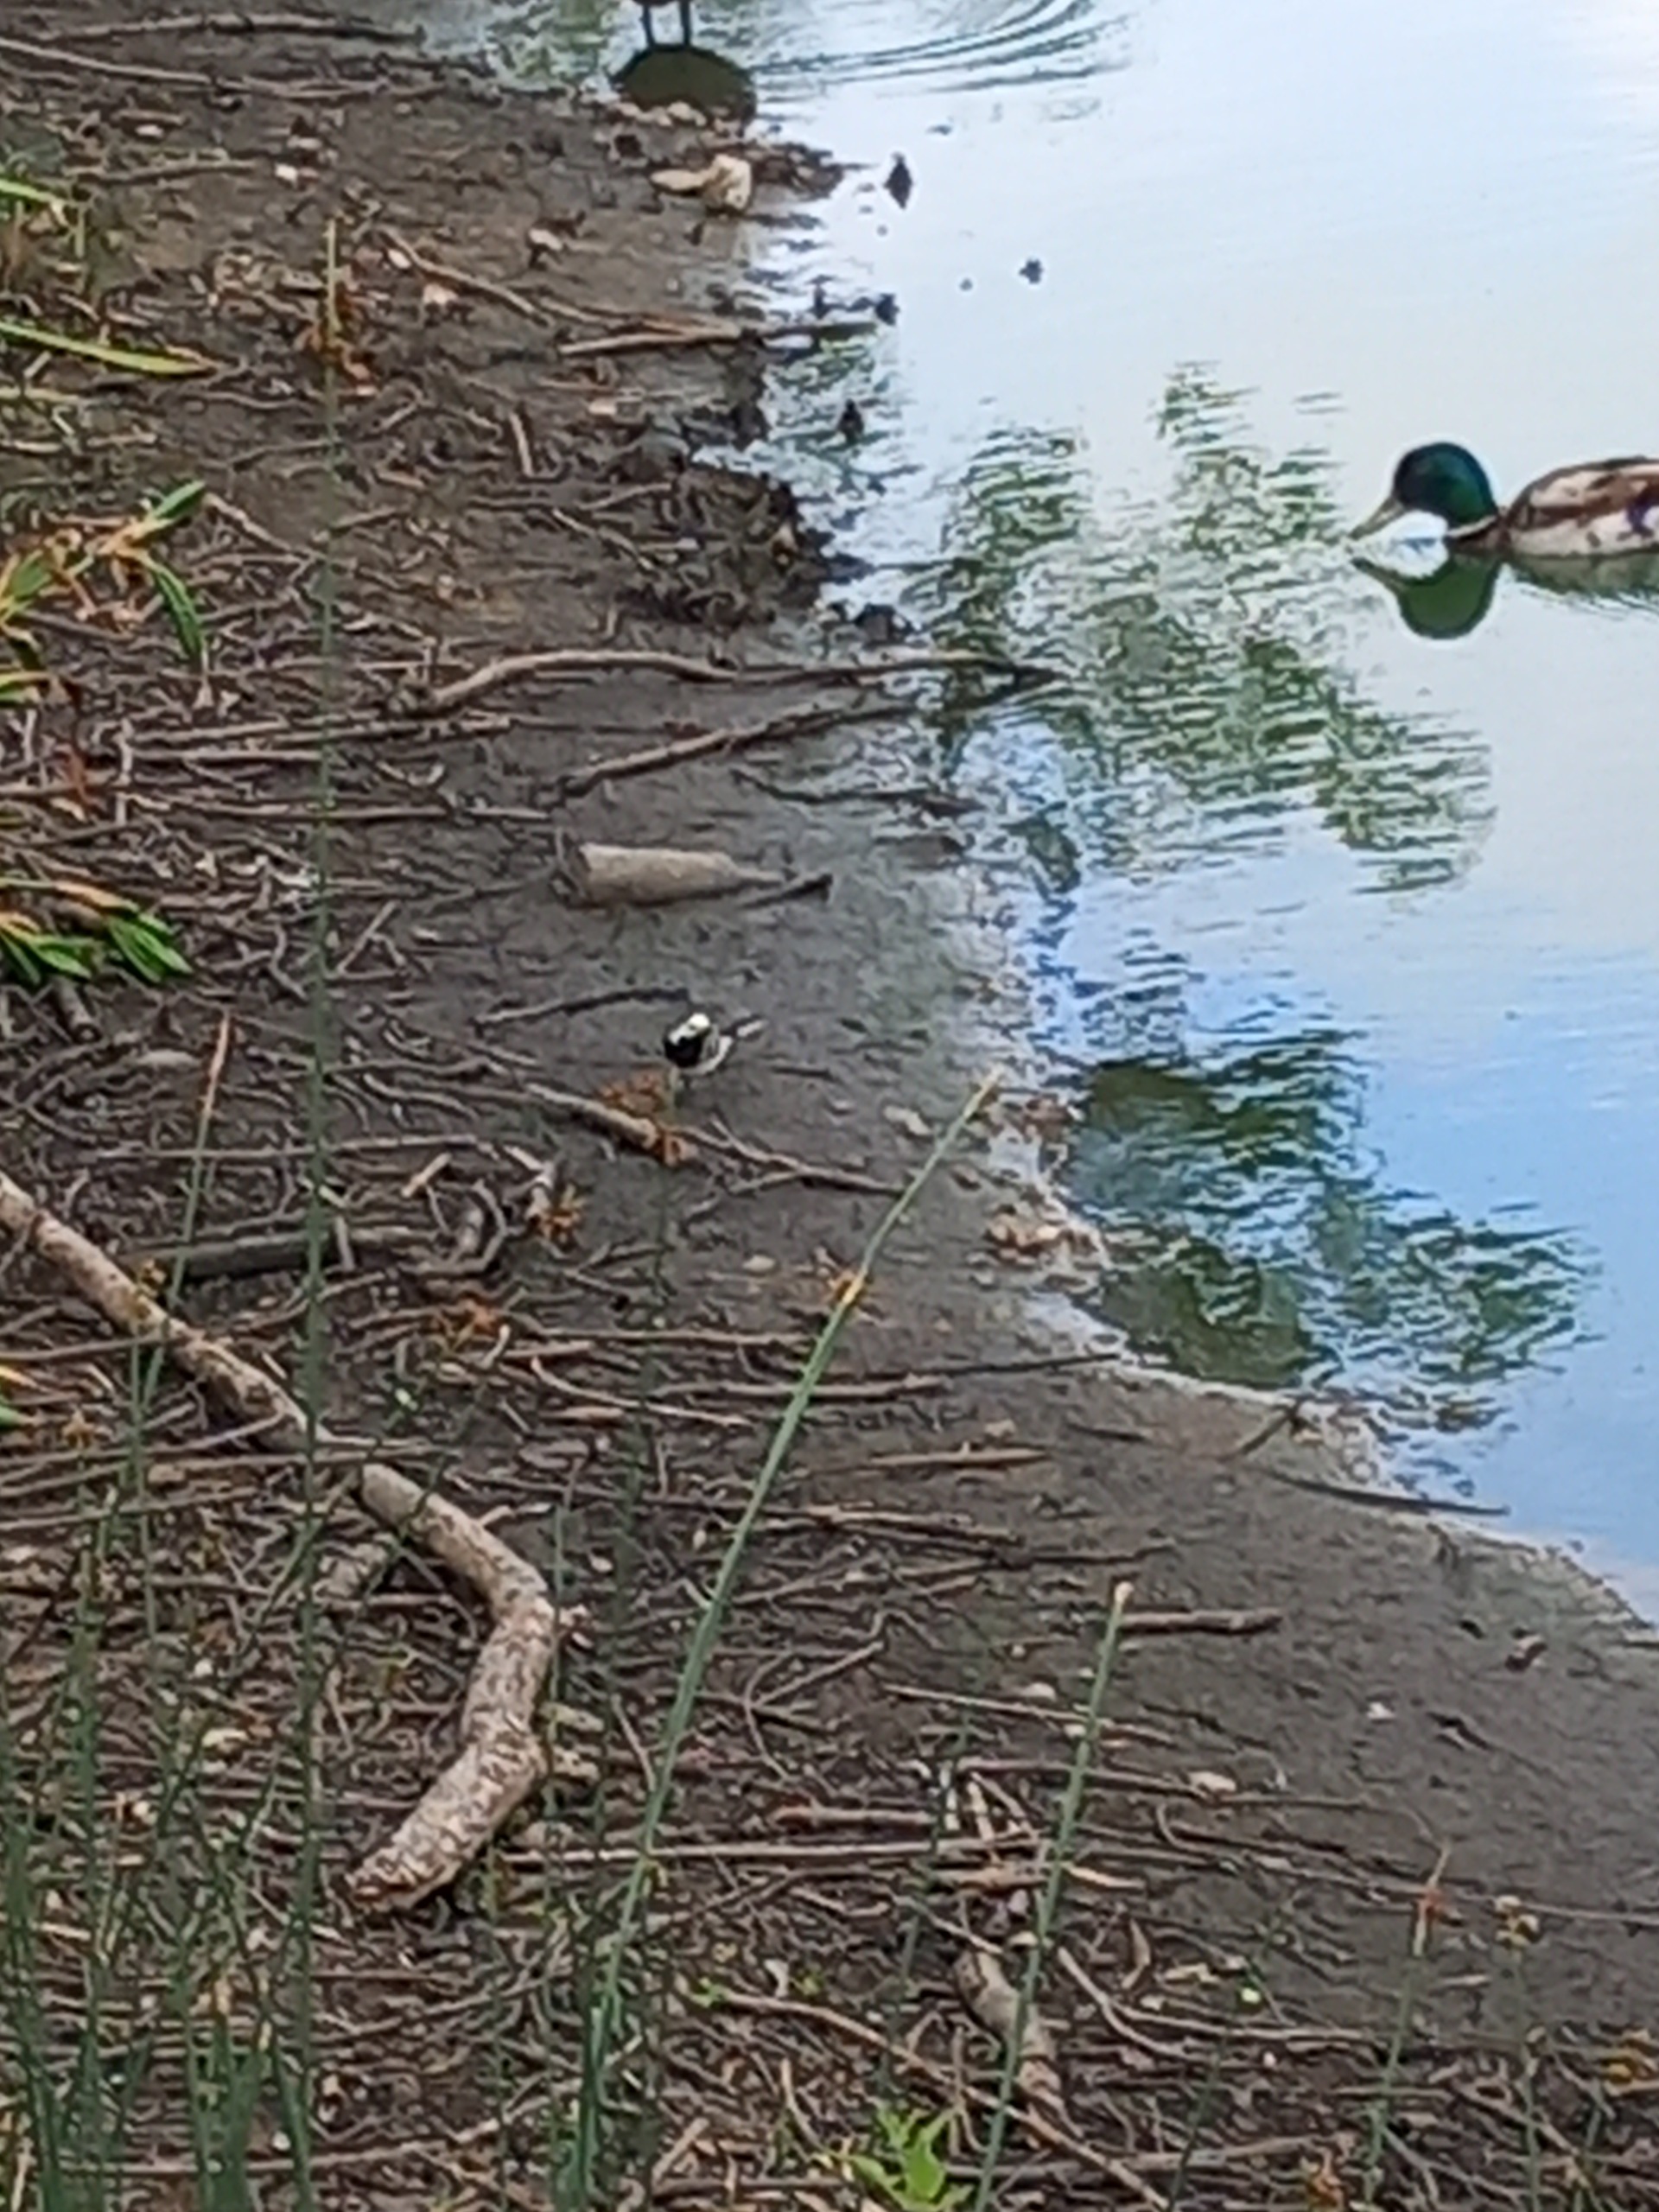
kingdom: Animalia
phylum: Chordata
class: Aves
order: Passeriformes
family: Motacillidae
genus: Motacilla
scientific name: Motacilla alba
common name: Hvid vipstjert
